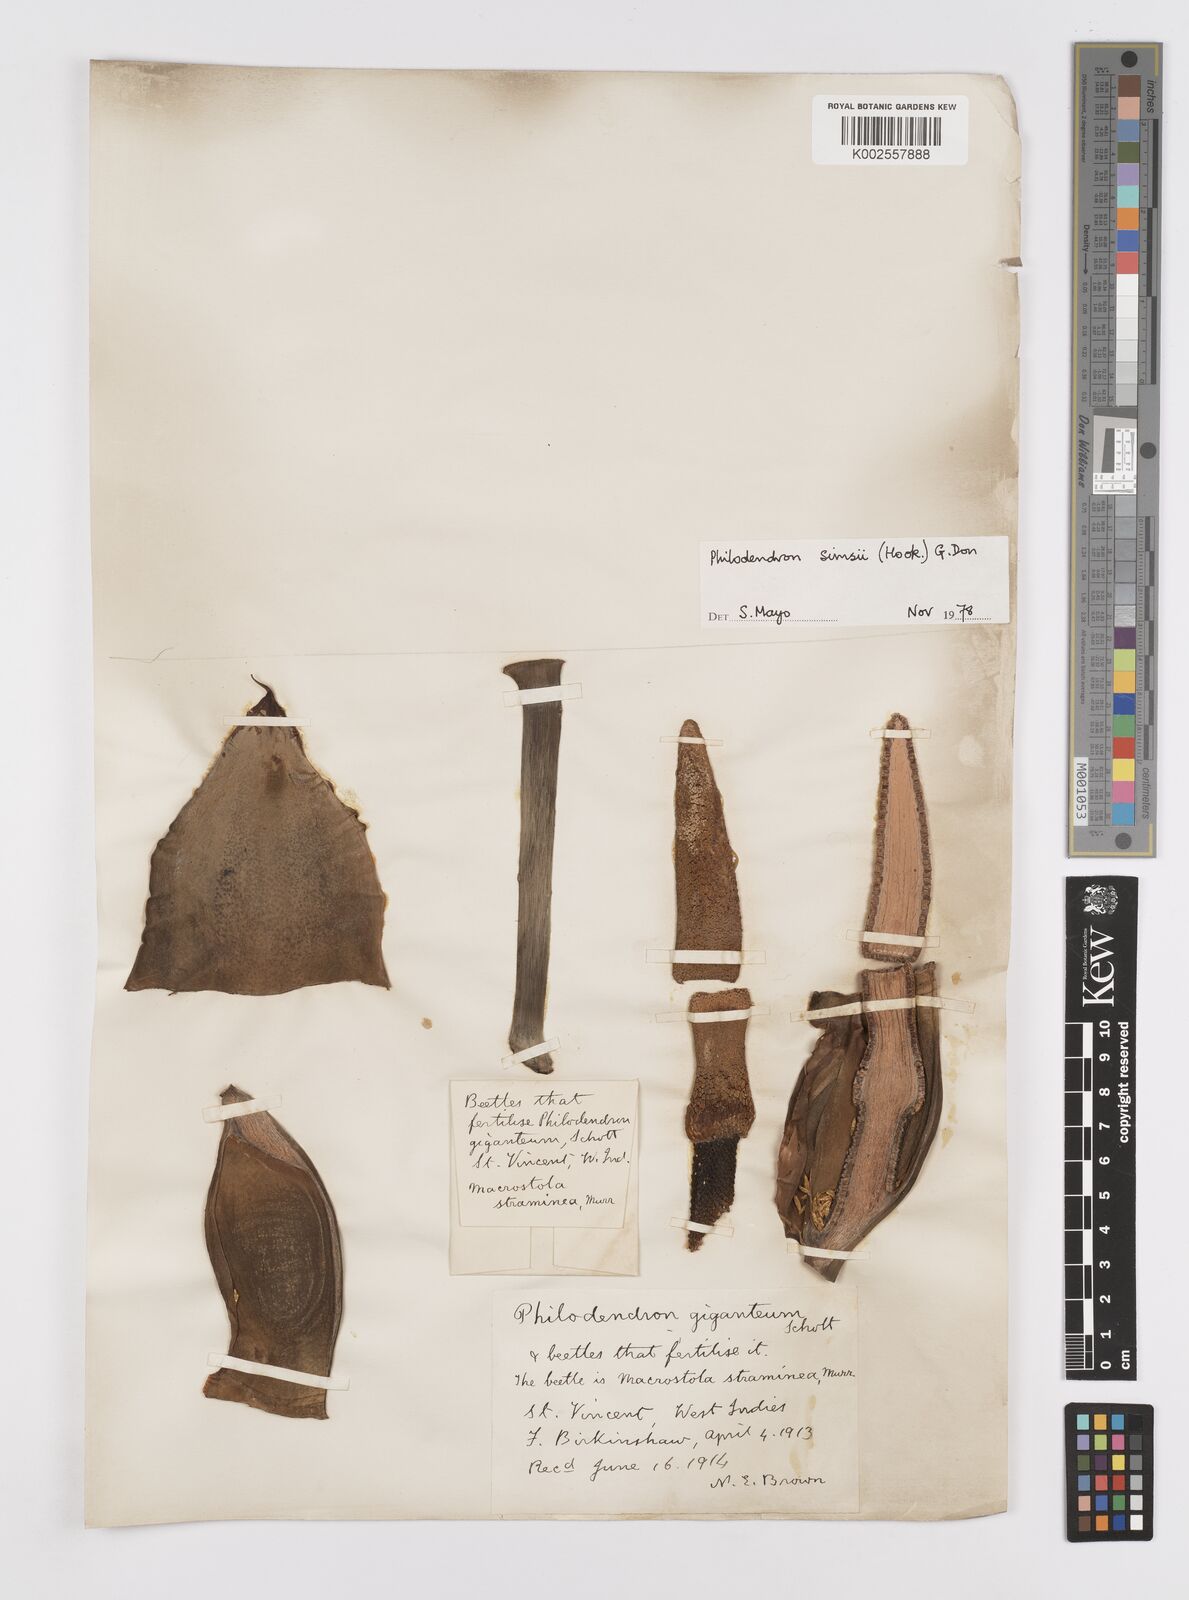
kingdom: Plantae
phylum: Tracheophyta
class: Liliopsida
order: Alismatales
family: Araceae
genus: Philodendron
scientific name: Philodendron
